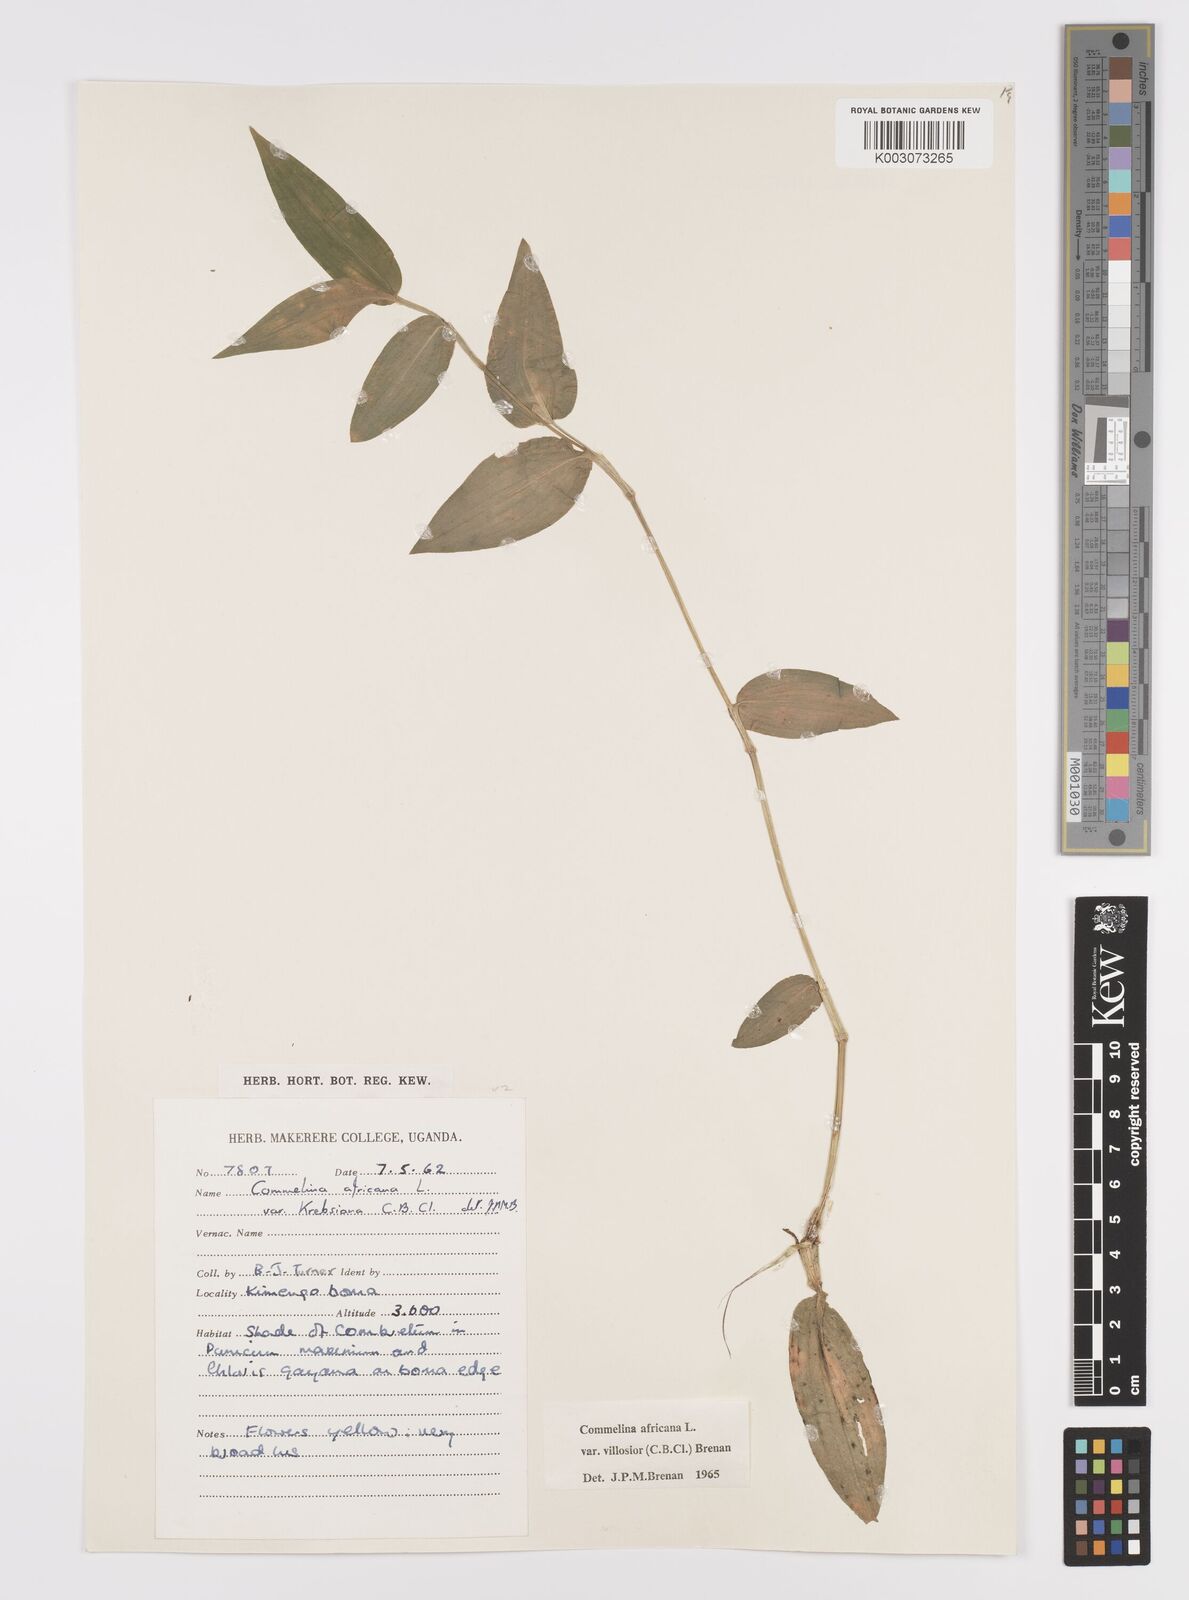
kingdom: Plantae
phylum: Tracheophyta
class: Liliopsida
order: Commelinales
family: Commelinaceae
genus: Commelina
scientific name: Commelina africana
